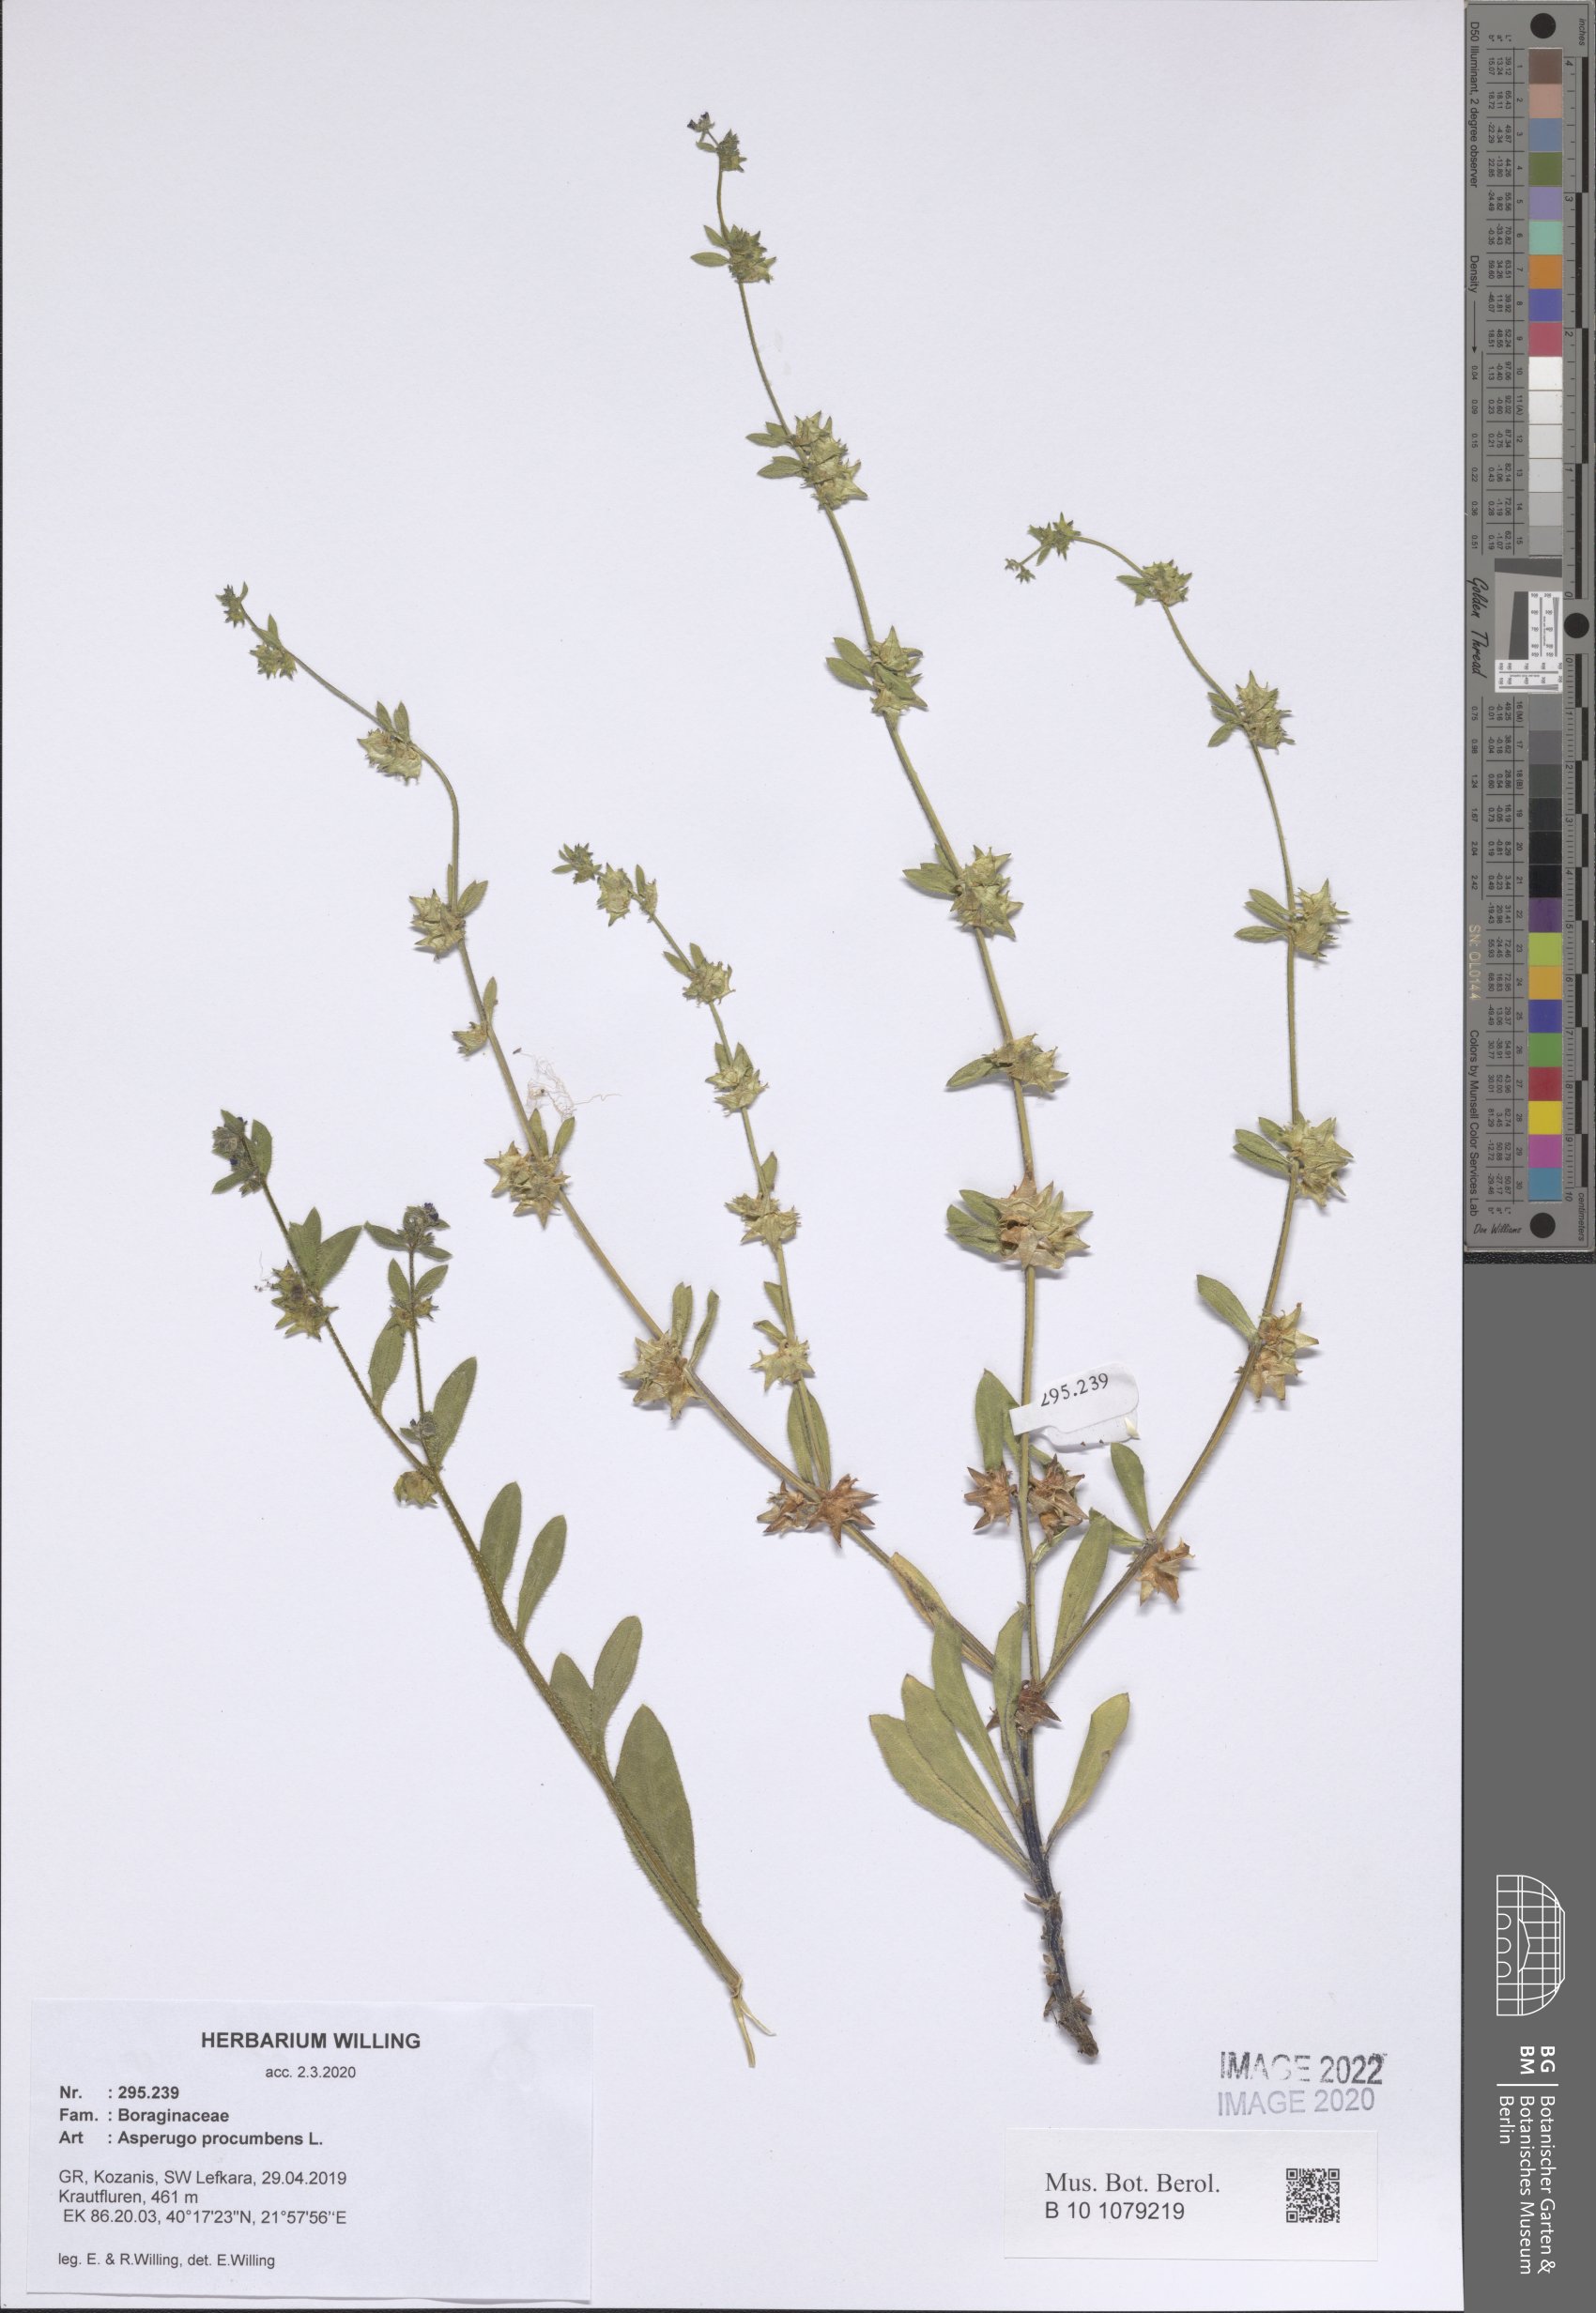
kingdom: Plantae
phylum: Tracheophyta
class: Magnoliopsida
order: Boraginales
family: Boraginaceae
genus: Asperugo
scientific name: Asperugo procumbens
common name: Madwort
